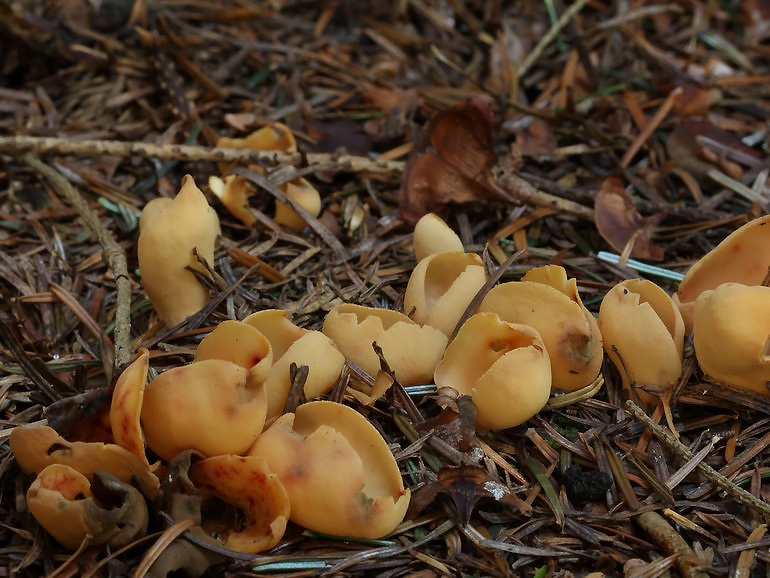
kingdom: Fungi
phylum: Ascomycota
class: Pezizomycetes
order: Pezizales
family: Otideaceae
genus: Otidea
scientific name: Otidea onotica
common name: æsel-ørebæger
